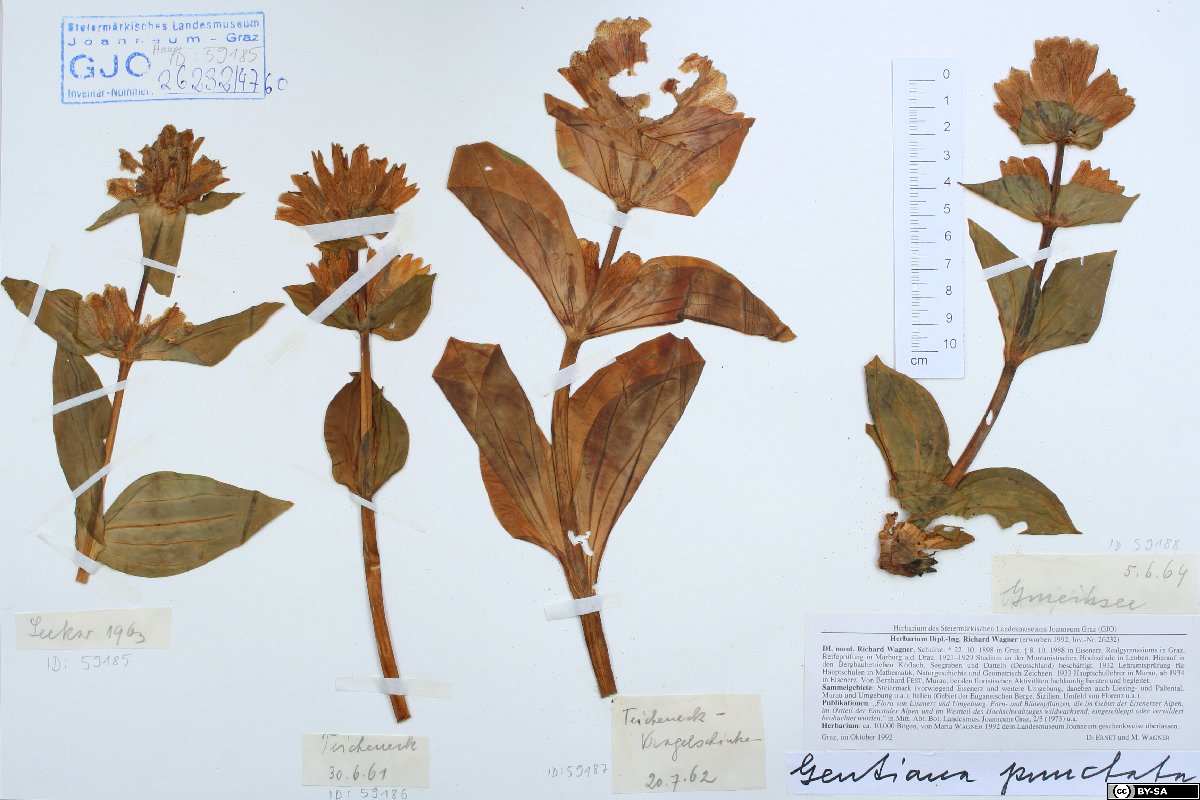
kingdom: Plantae
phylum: Tracheophyta
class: Magnoliopsida
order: Gentianales
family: Gentianaceae
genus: Gentiana
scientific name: Gentiana punctata
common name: Spotted gentian
